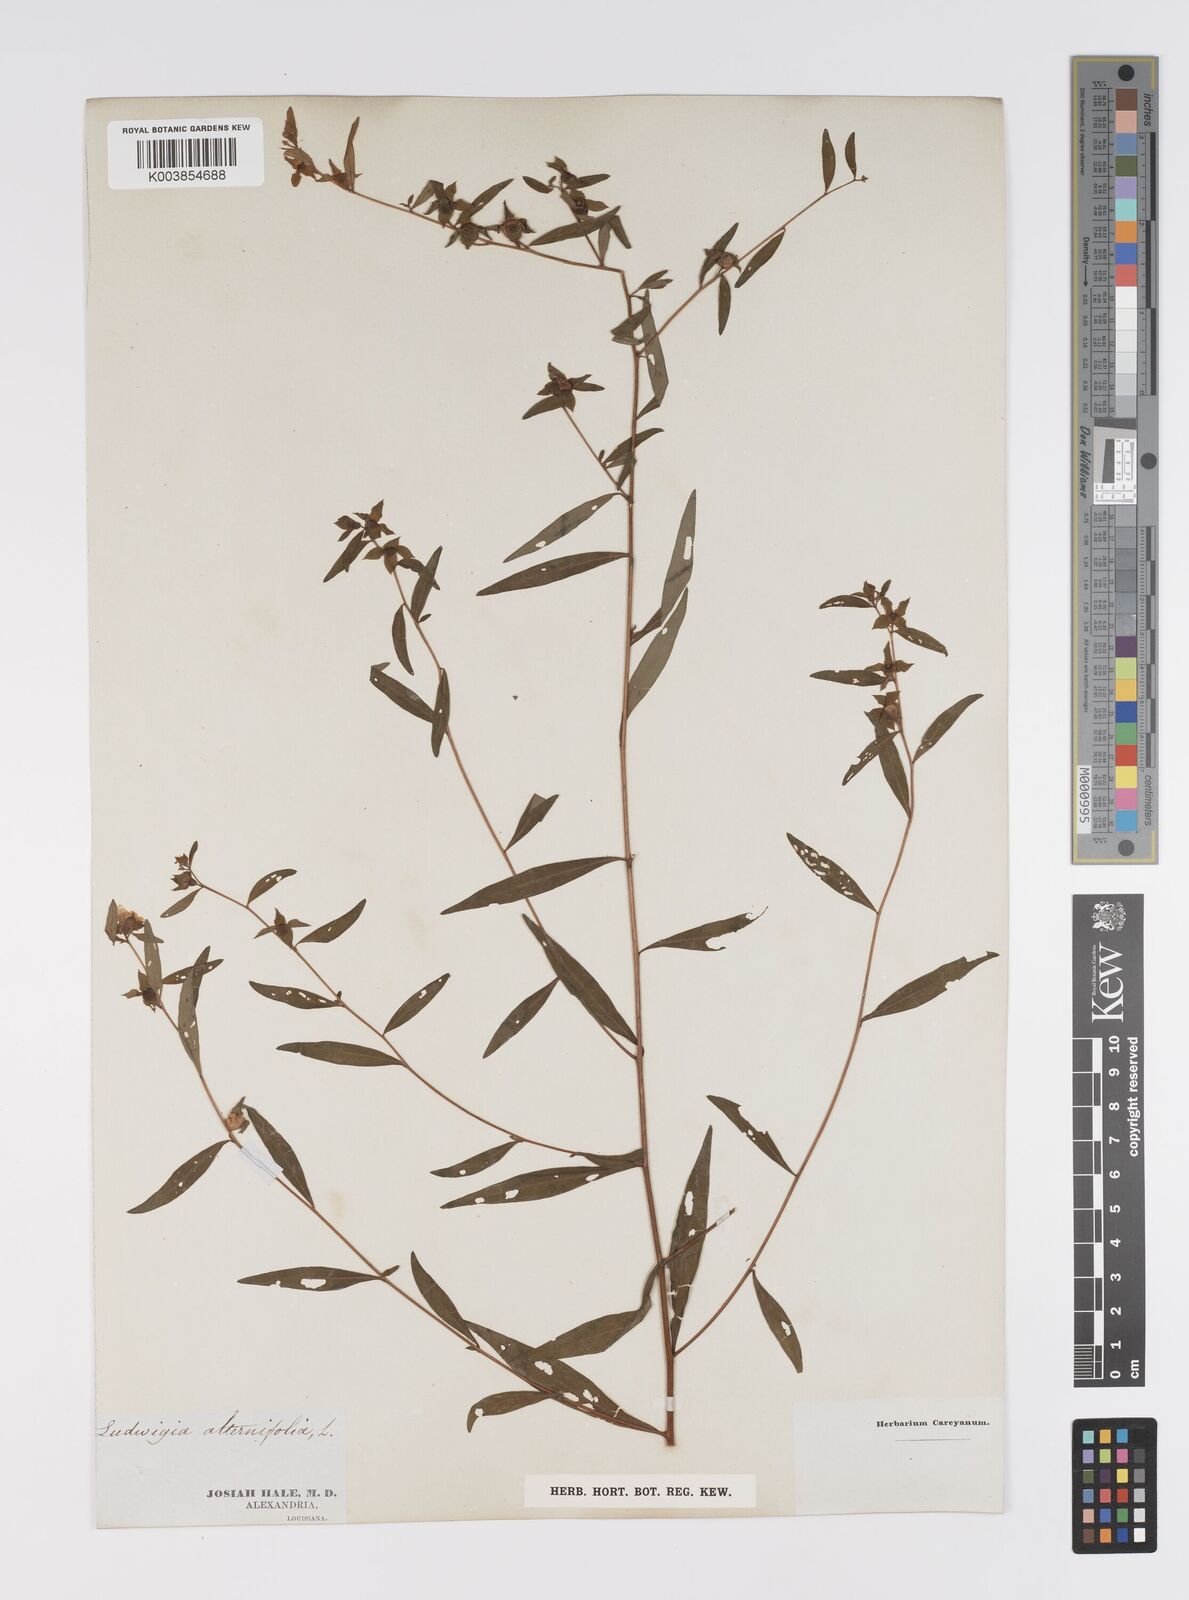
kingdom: Plantae
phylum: Tracheophyta
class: Magnoliopsida
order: Myrtales
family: Onagraceae
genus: Ludwigia
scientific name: Ludwigia alternifolia
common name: Rattlebox
